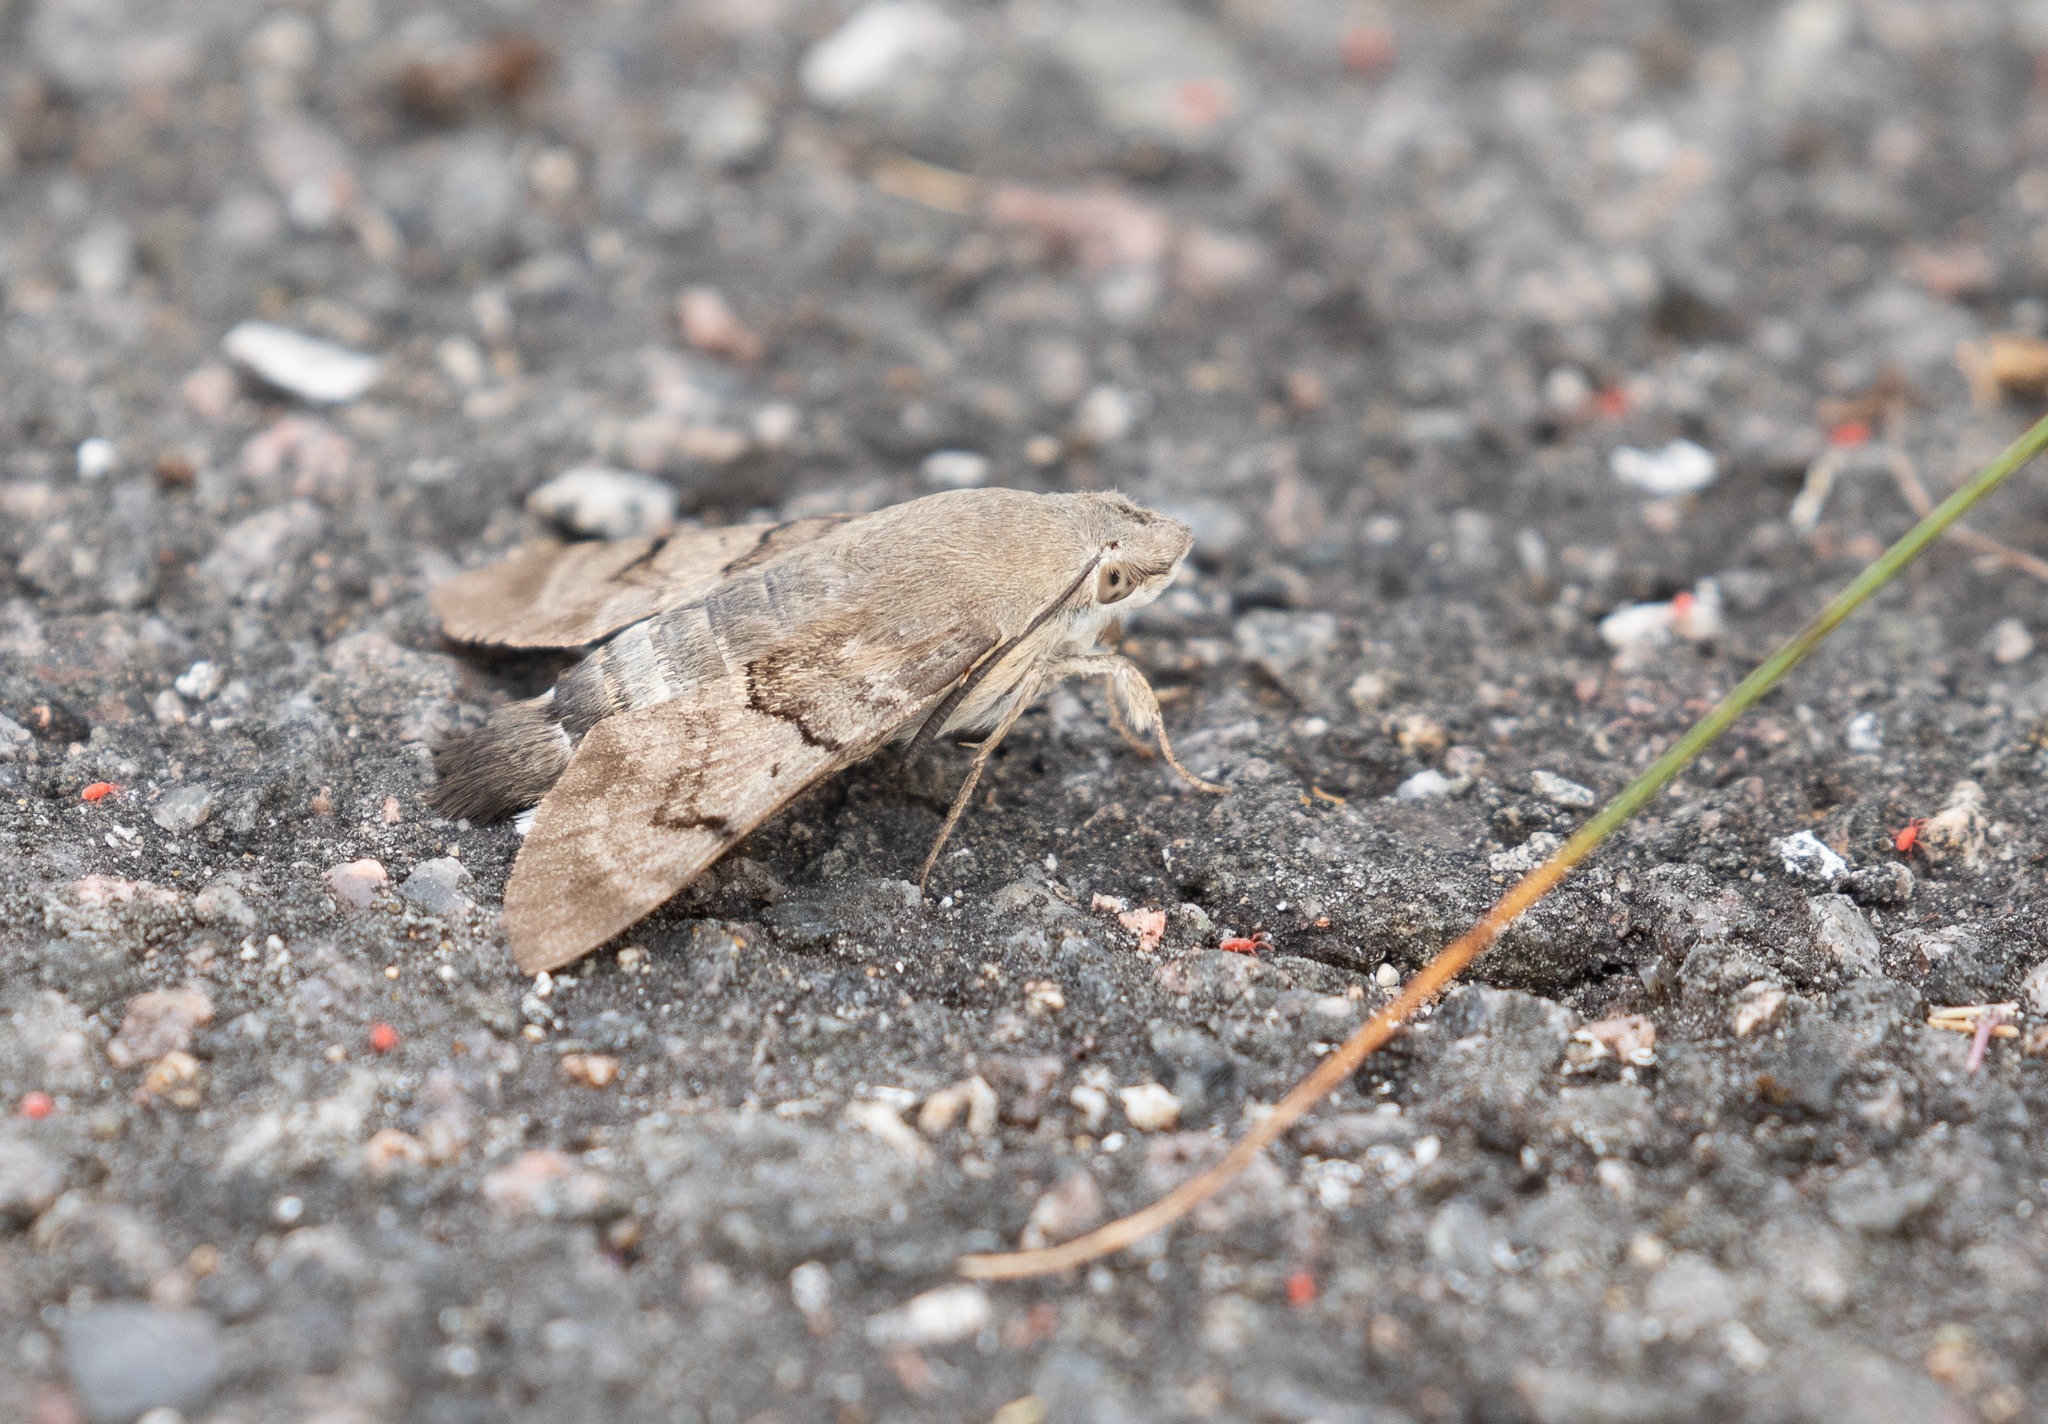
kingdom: Animalia
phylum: Arthropoda
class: Insecta
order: Lepidoptera
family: Sphingidae
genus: Macroglossum
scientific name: Macroglossum stellatarum
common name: Duehale
